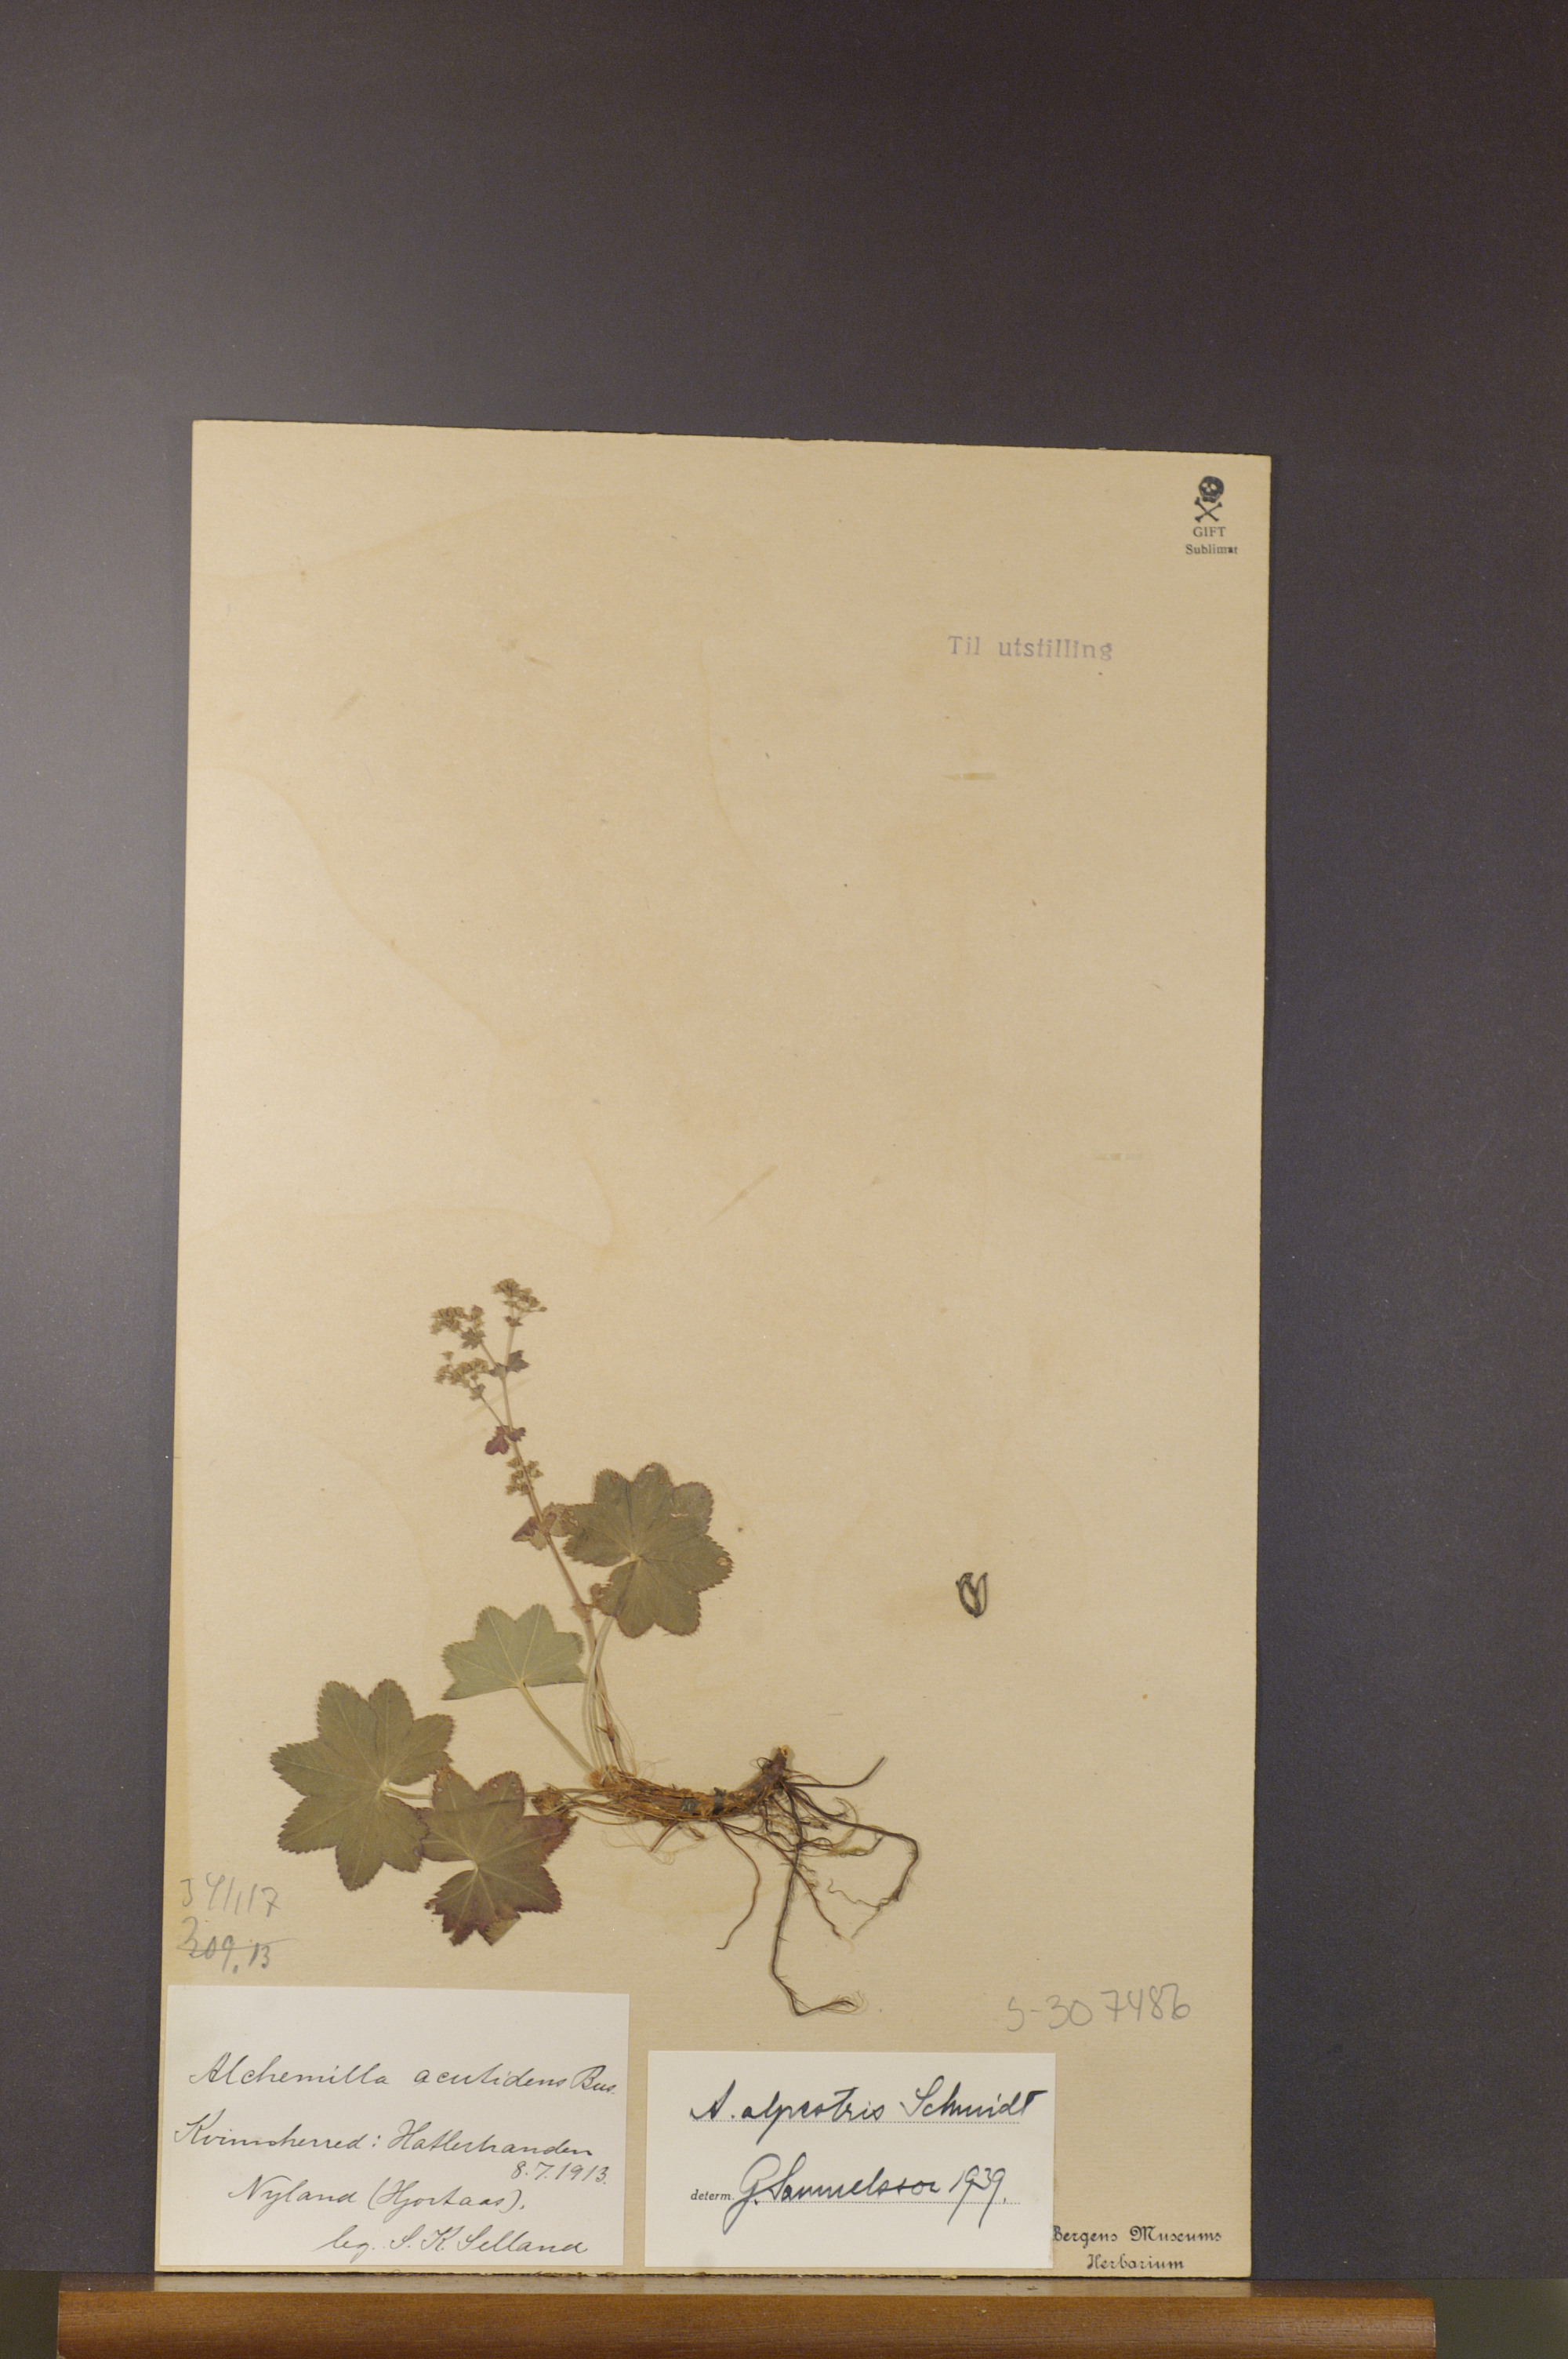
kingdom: Plantae
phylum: Tracheophyta
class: Magnoliopsida
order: Rosales
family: Rosaceae
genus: Alchemilla
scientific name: Alchemilla glabra
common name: Smooth lady's-mantle
